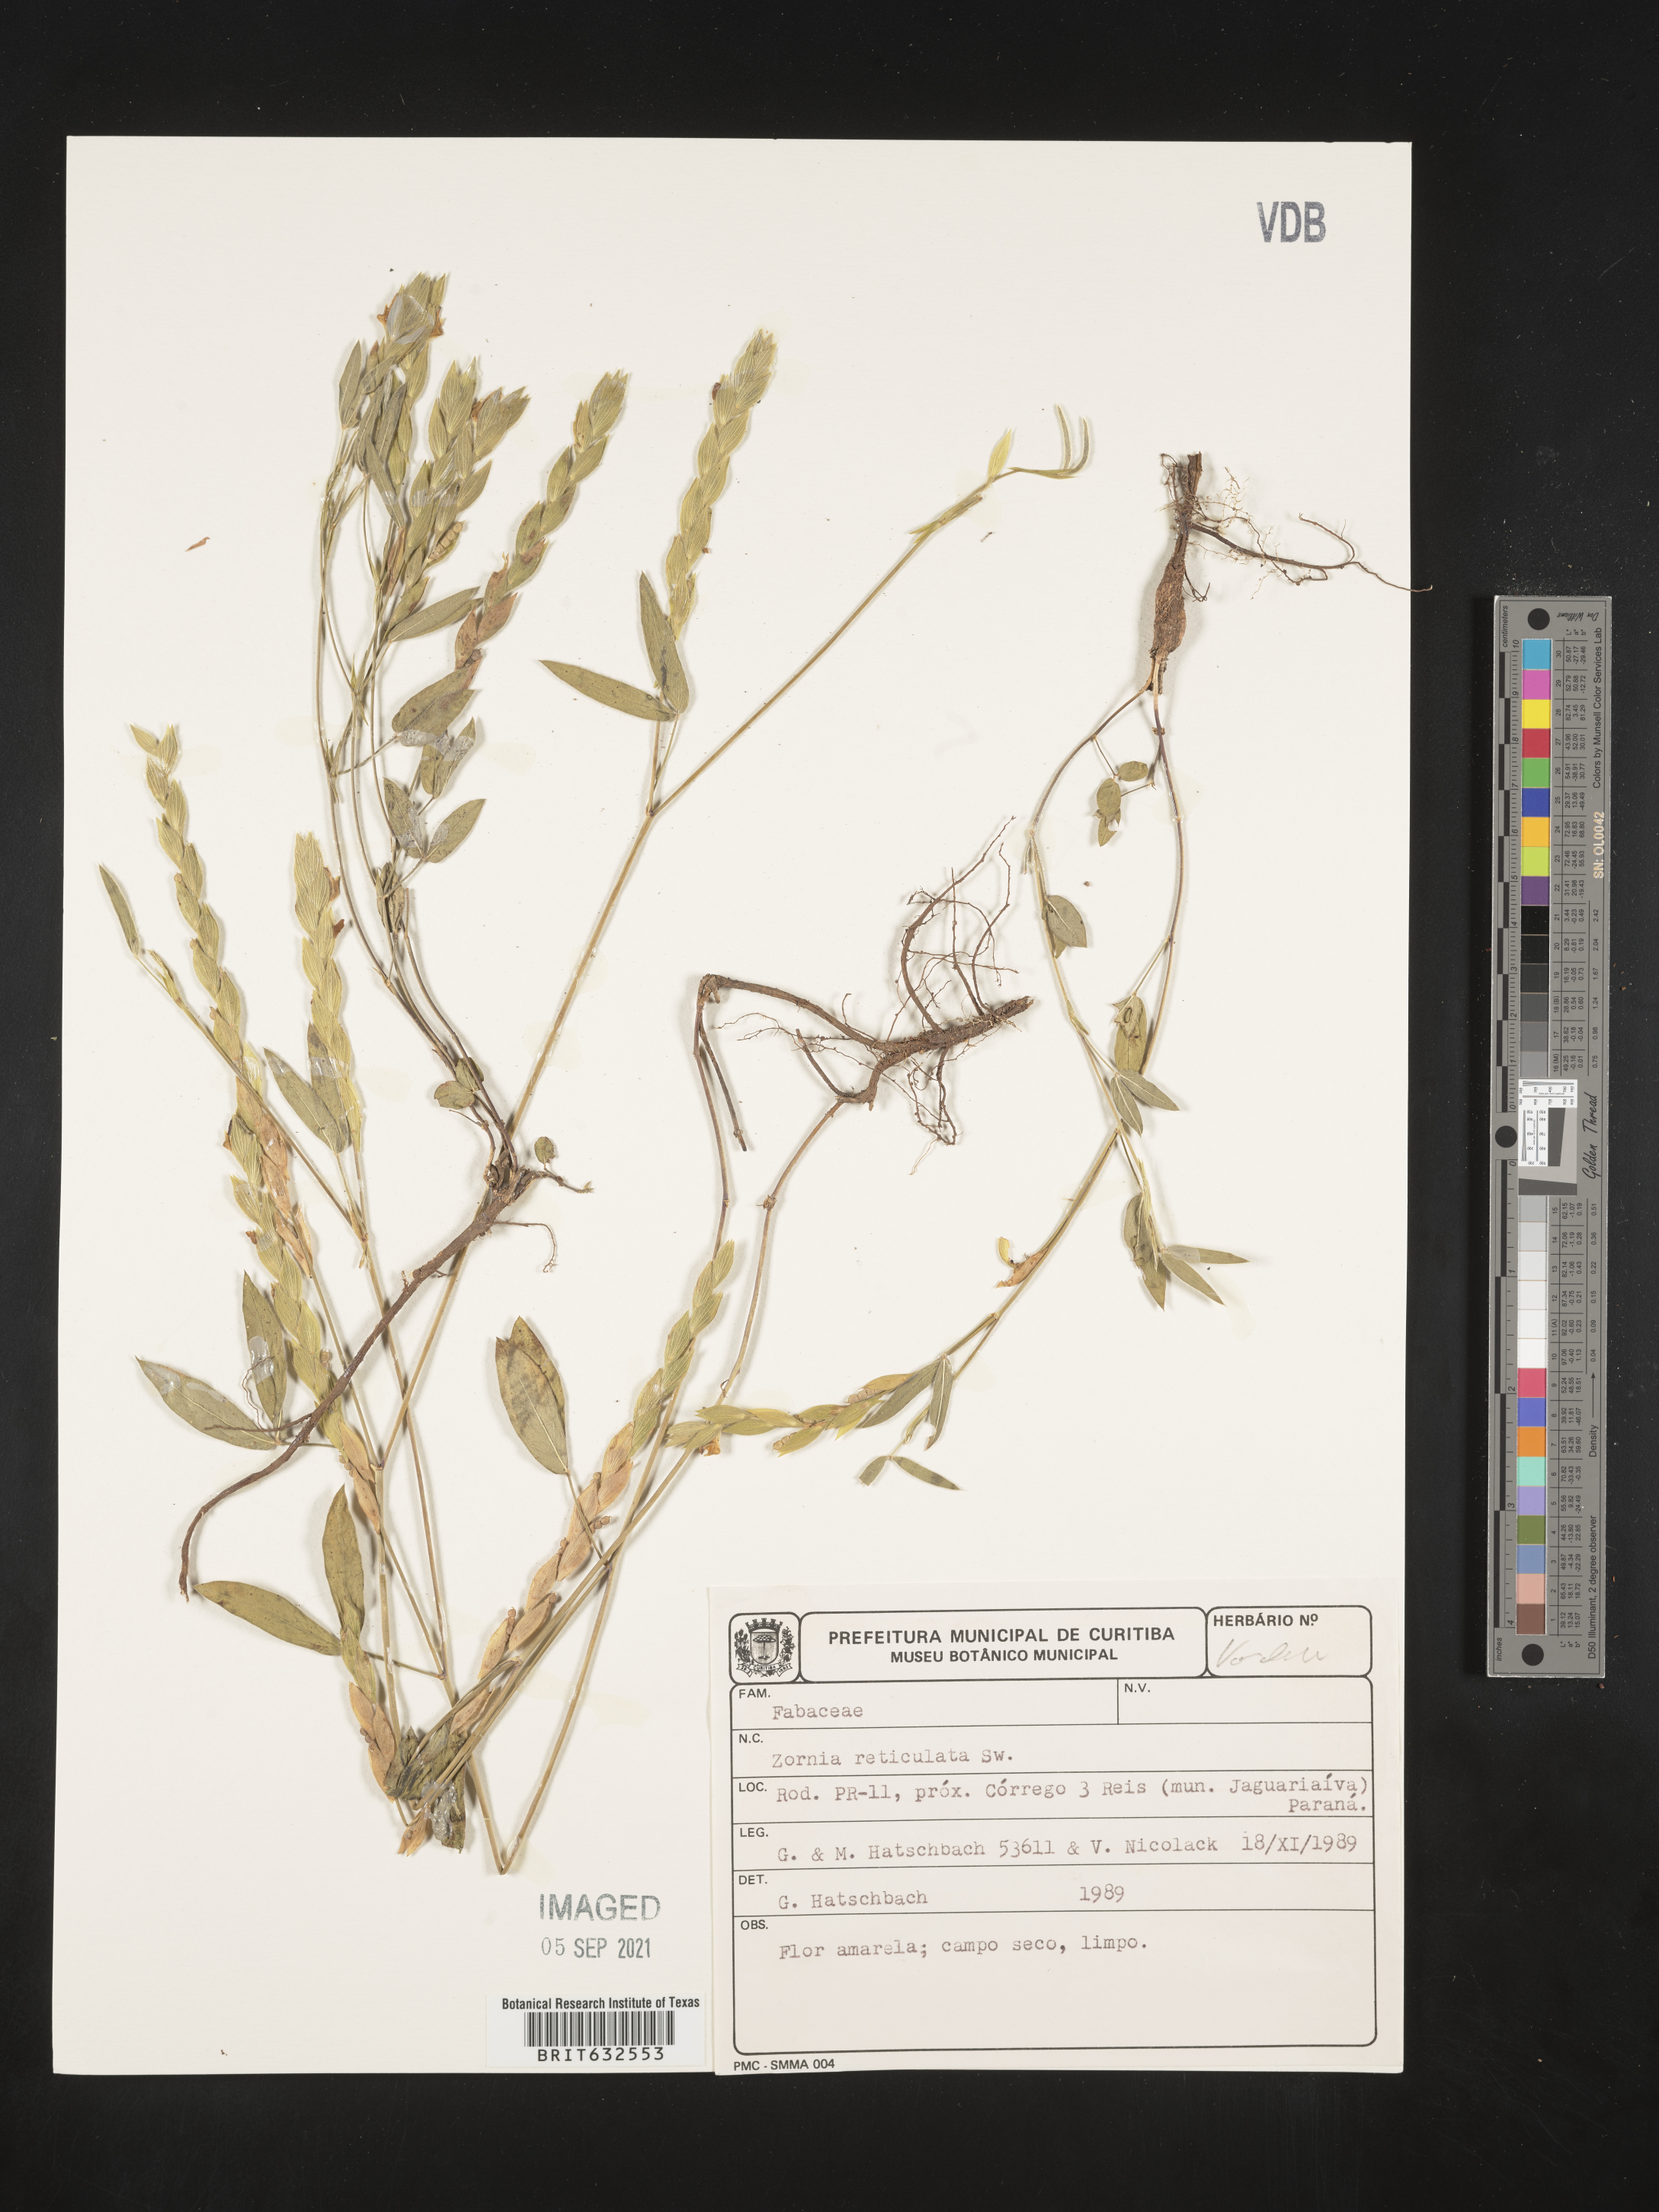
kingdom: Plantae
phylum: Tracheophyta
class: Magnoliopsida
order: Fabales
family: Fabaceae
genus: Zornia
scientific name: Zornia
